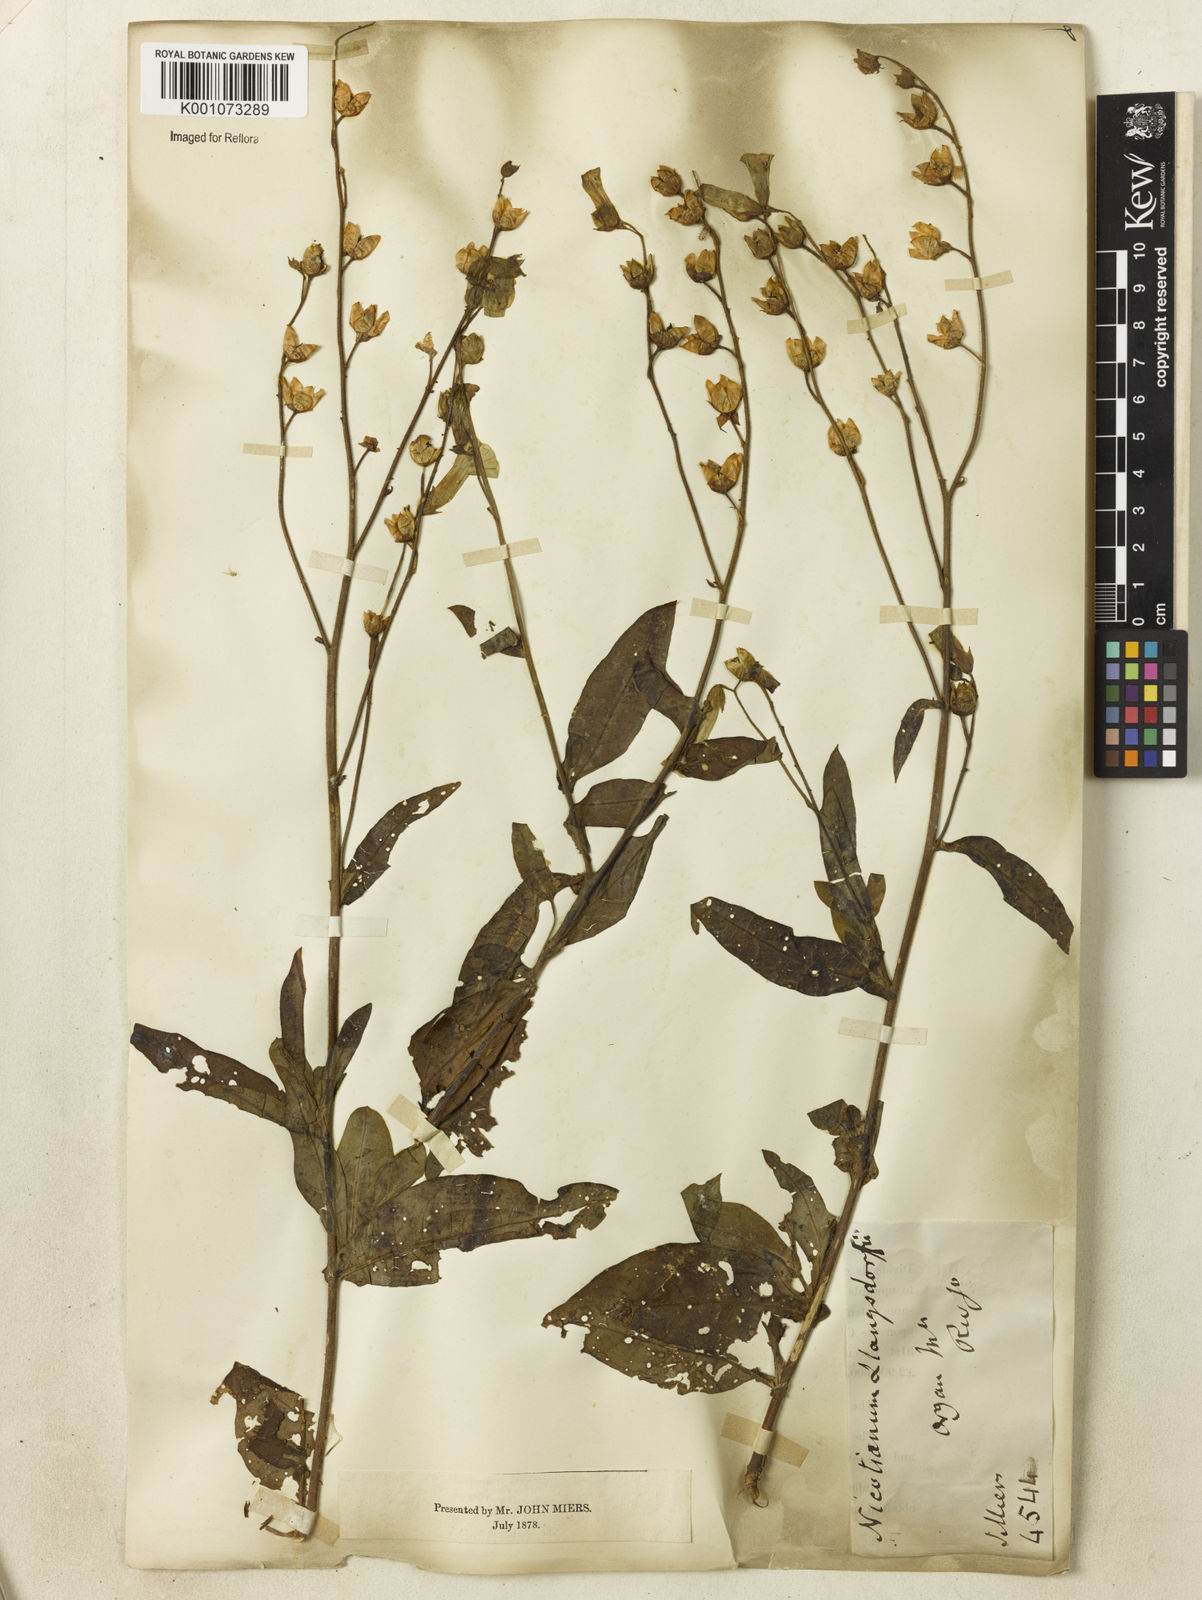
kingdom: Plantae
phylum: Tracheophyta
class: Magnoliopsida
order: Solanales
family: Solanaceae
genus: Nicotiana
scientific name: Nicotiana
